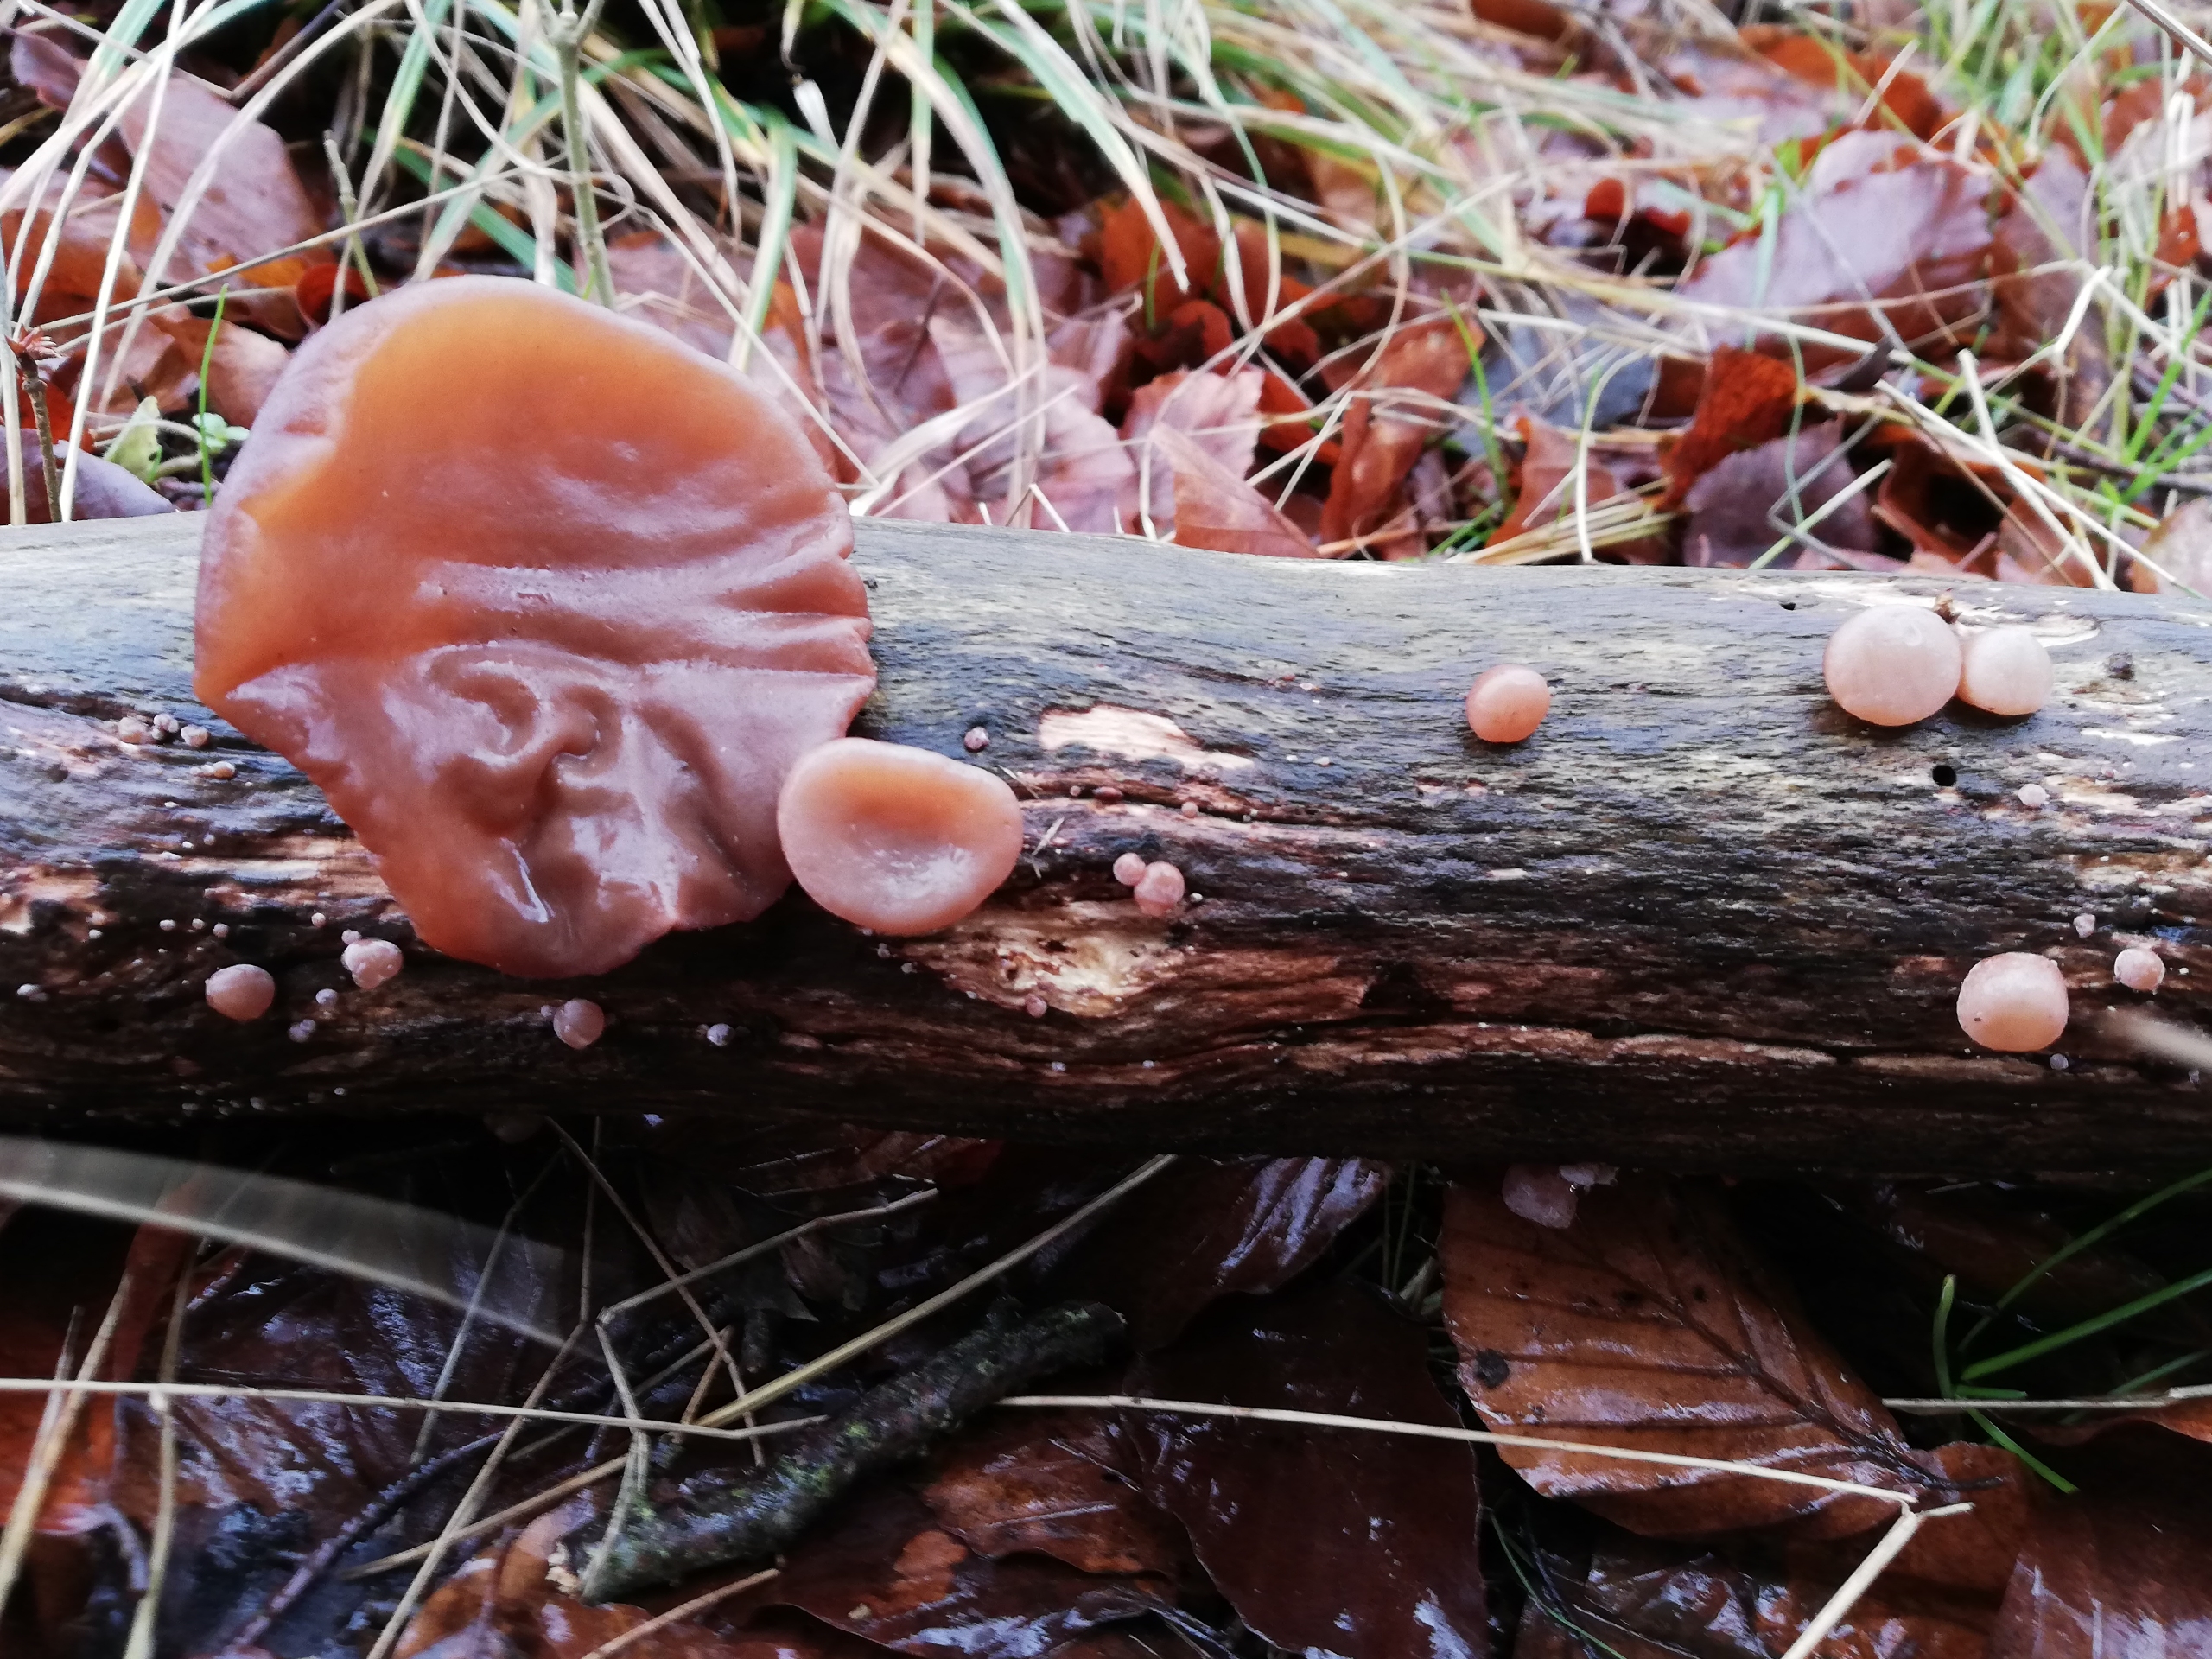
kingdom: Fungi
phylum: Basidiomycota
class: Agaricomycetes
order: Auriculariales
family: Auriculariaceae
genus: Auricularia
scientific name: Auricularia auricula-judae
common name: Almindelig judasøre
